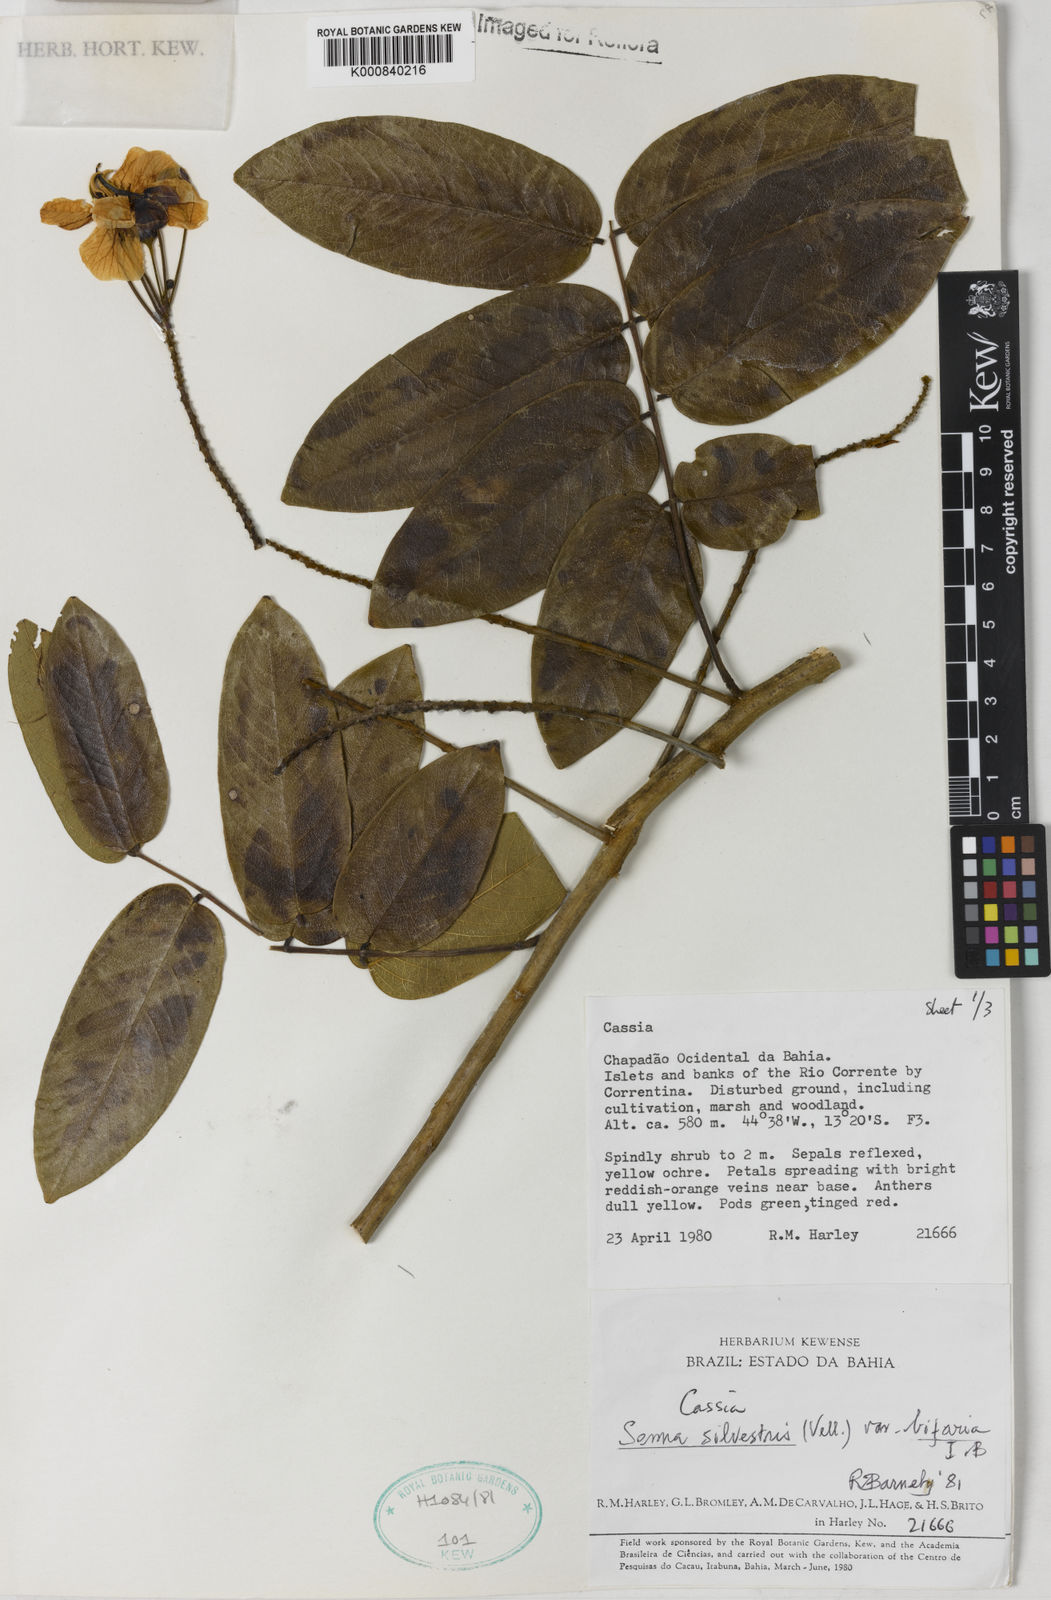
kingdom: Plantae
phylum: Tracheophyta
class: Magnoliopsida
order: Fabales
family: Fabaceae
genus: Senna
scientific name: Senna silvestris
